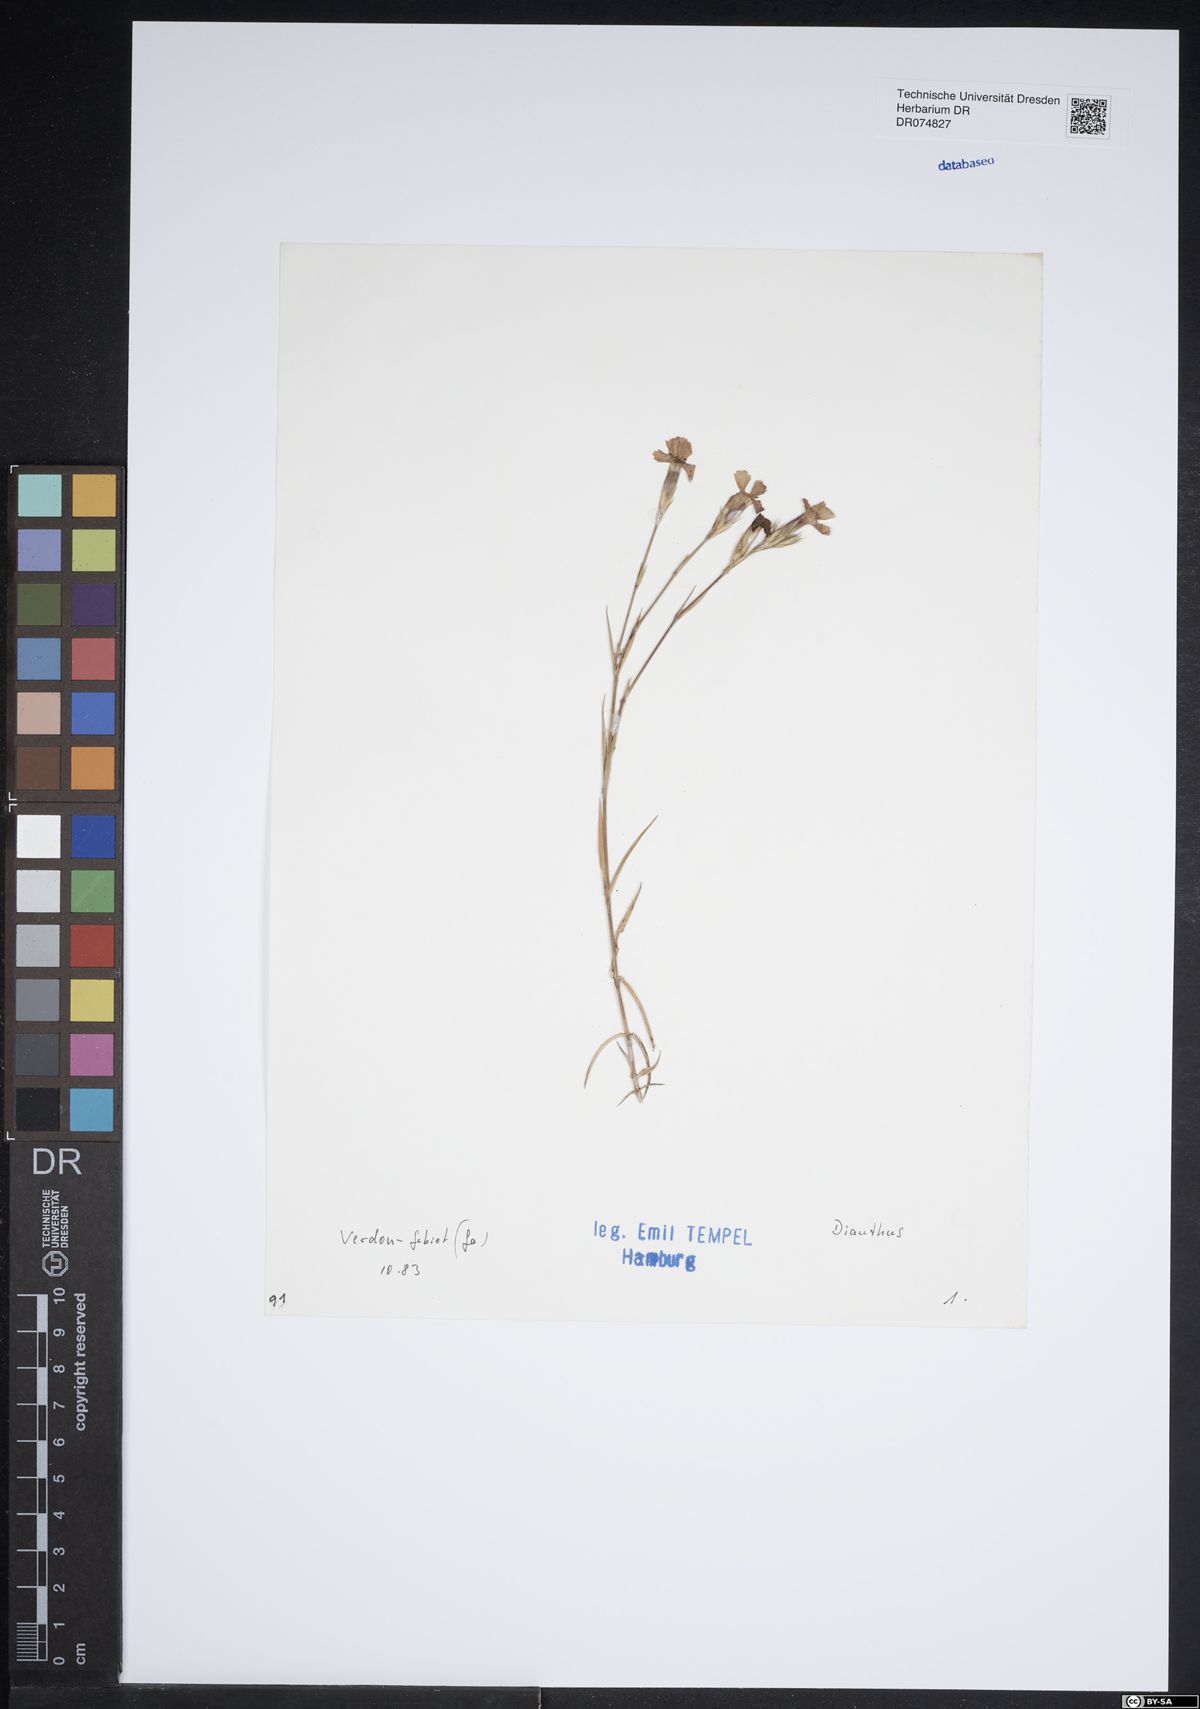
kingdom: Plantae
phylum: Tracheophyta
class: Magnoliopsida
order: Caryophyllales
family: Caryophyllaceae
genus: Dianthus
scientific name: Dianthus
